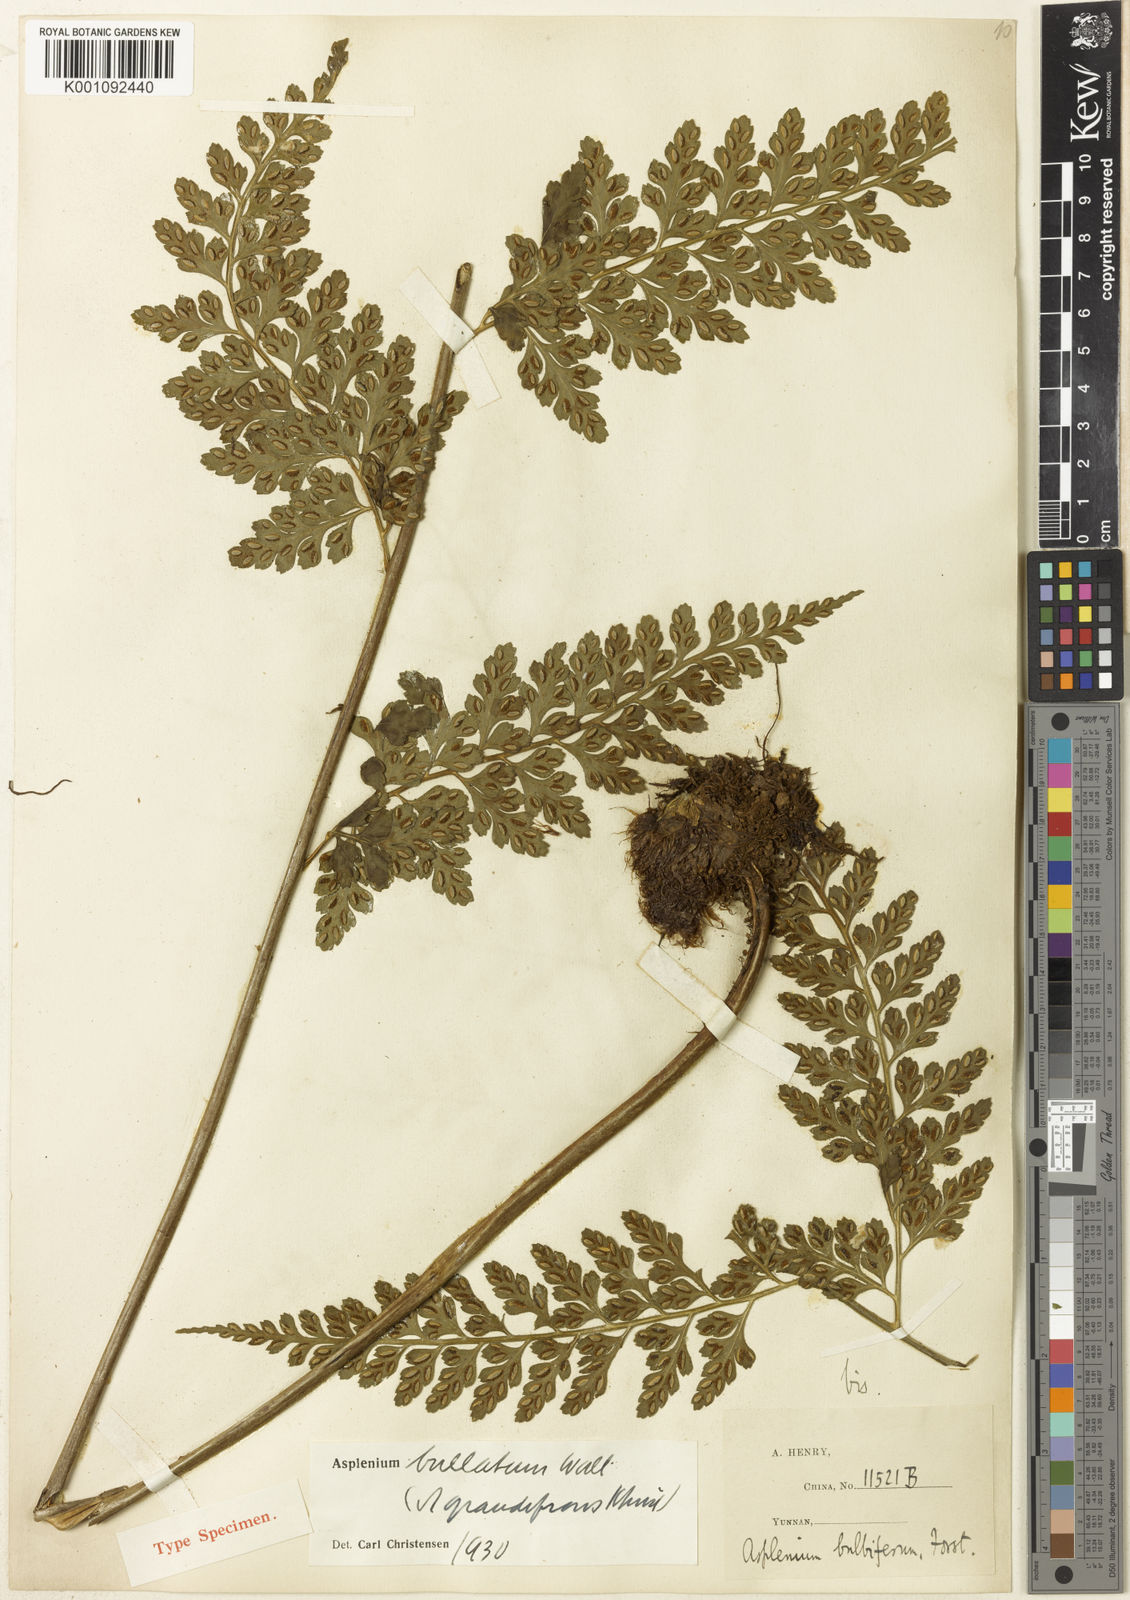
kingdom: Plantae
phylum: Tracheophyta
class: Polypodiopsida
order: Polypodiales
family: Aspleniaceae
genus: Asplenium
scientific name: Asplenium bullatum
